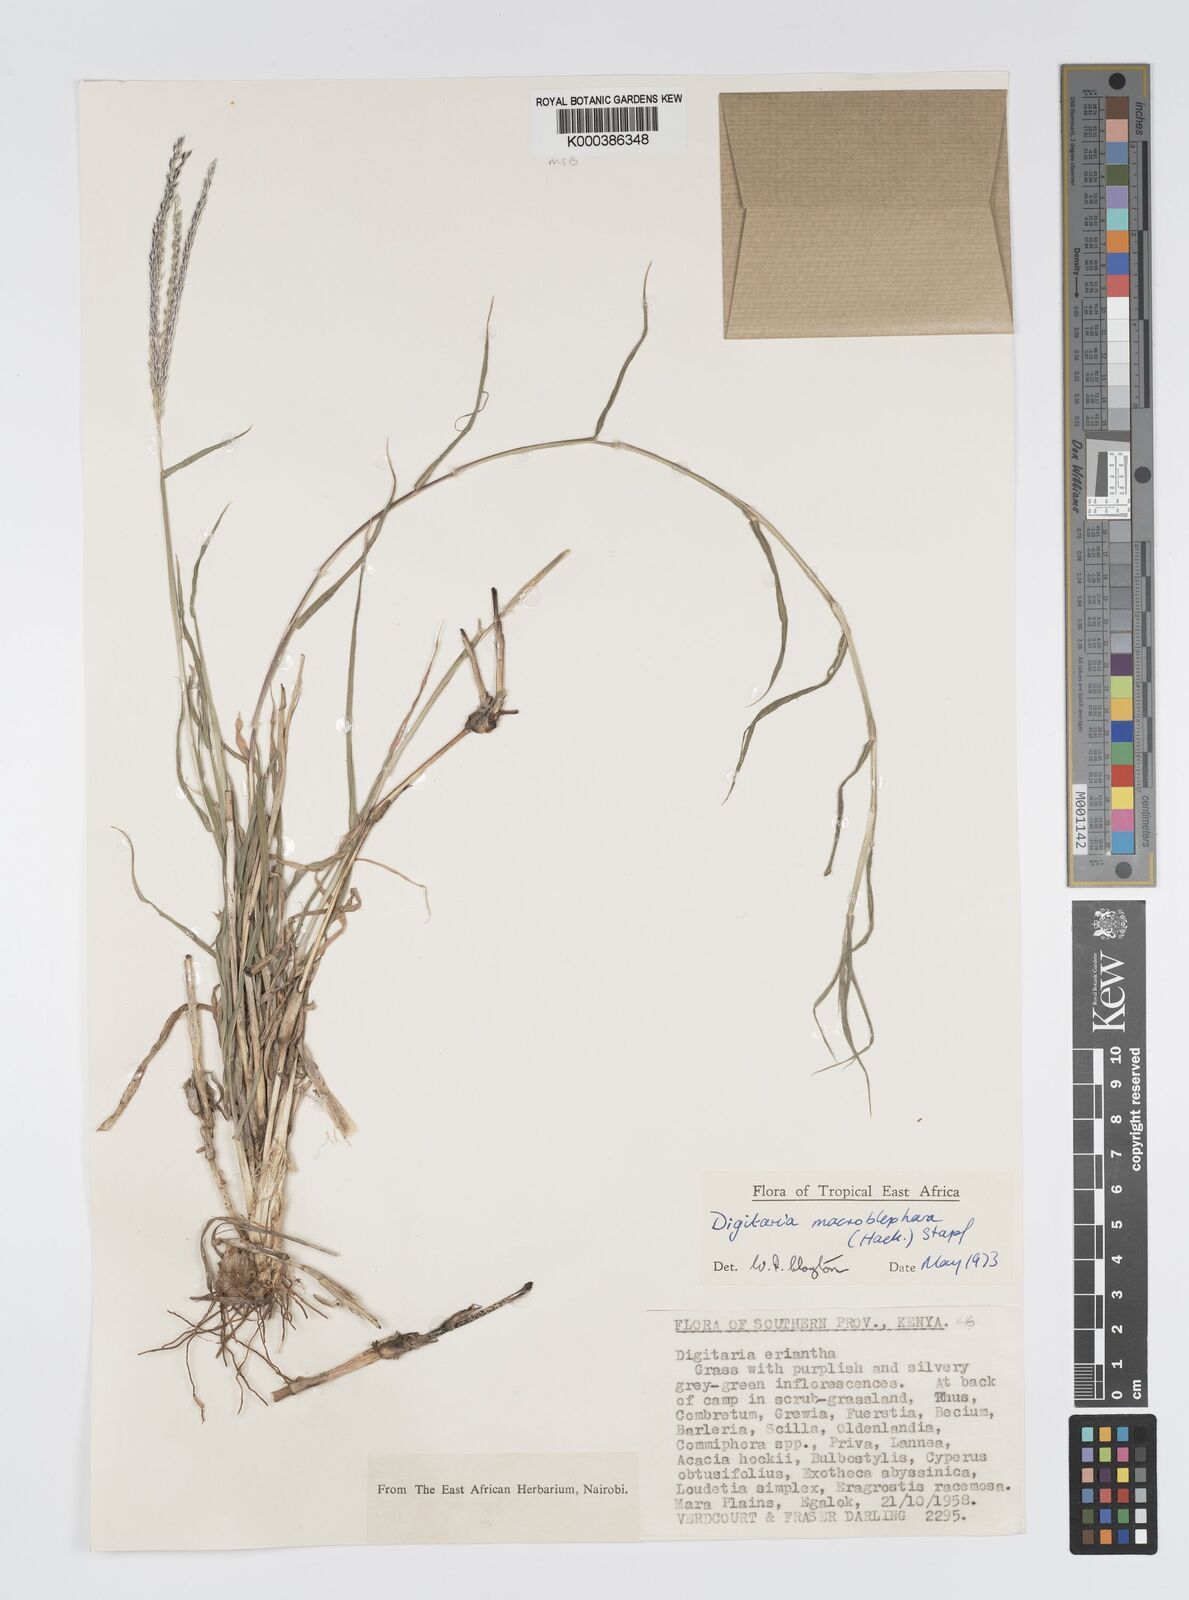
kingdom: Plantae
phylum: Tracheophyta
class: Liliopsida
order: Poales
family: Poaceae
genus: Digitaria
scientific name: Digitaria macroblephara
